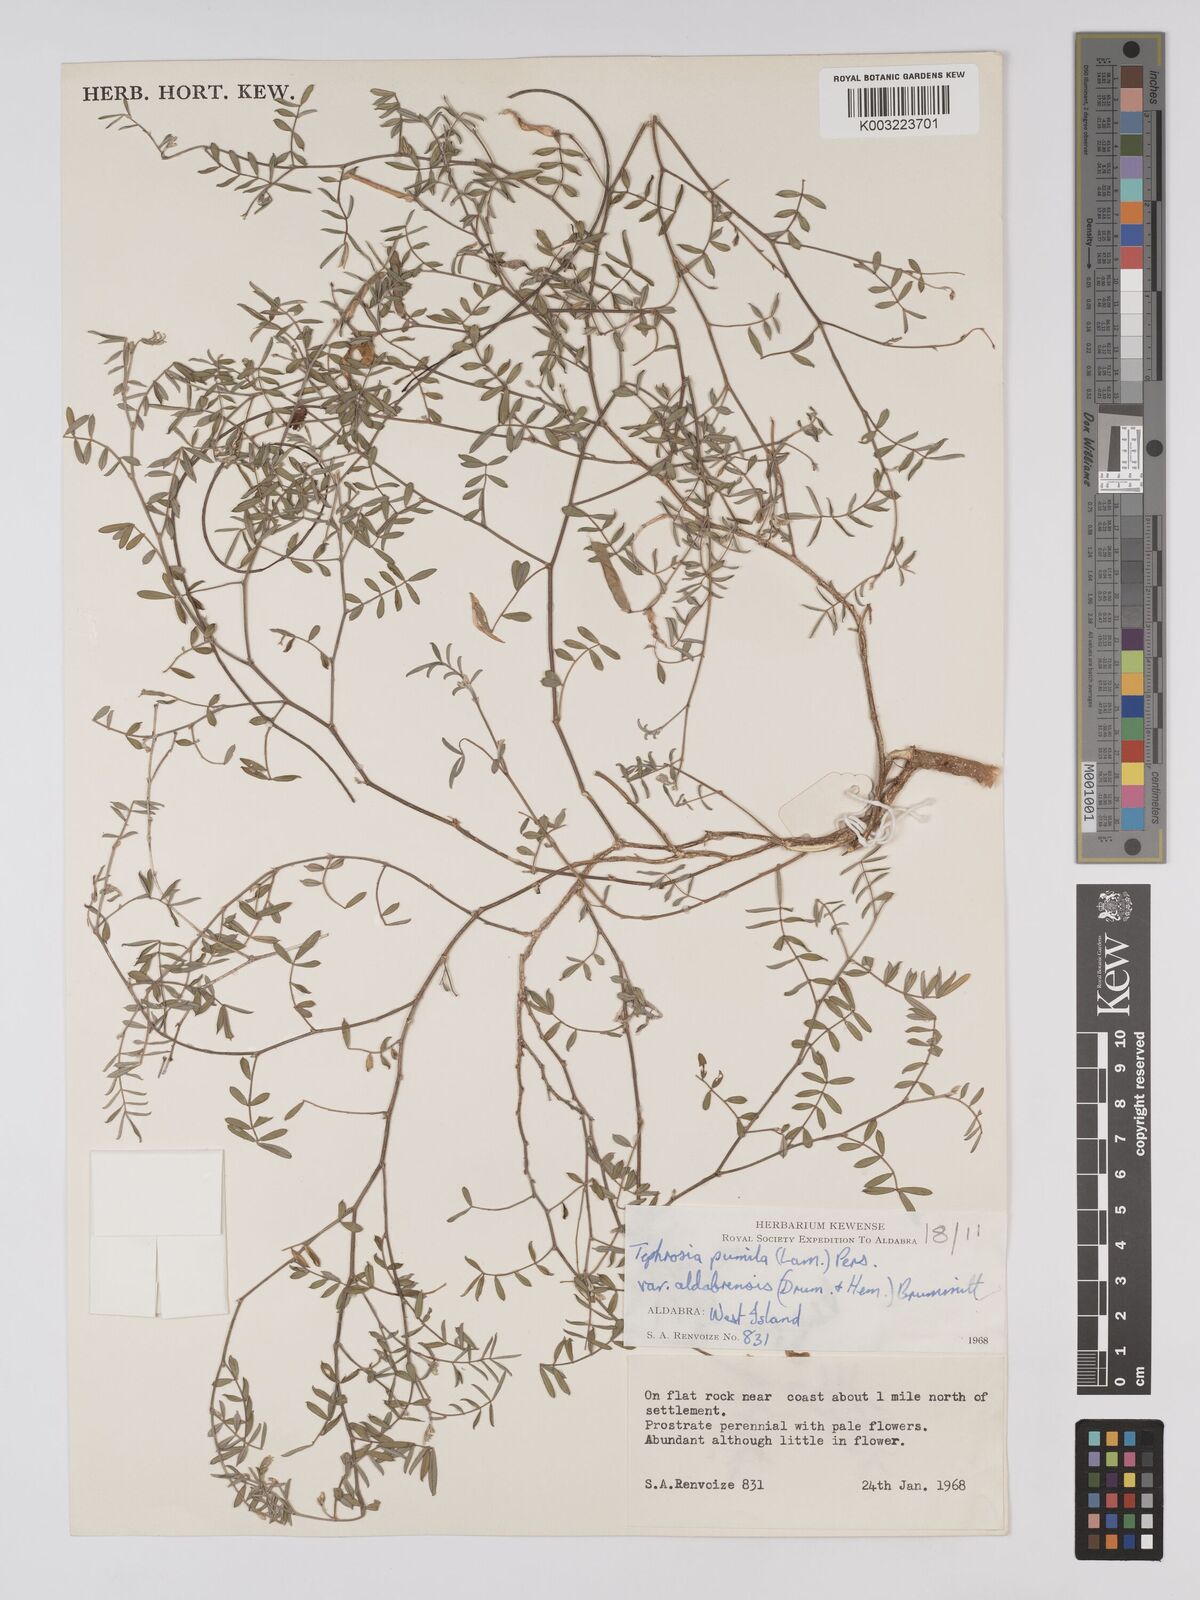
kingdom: Plantae
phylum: Tracheophyta
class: Magnoliopsida
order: Fabales
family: Fabaceae
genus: Tephrosia
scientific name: Tephrosia pumila
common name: Indigo sauvage
